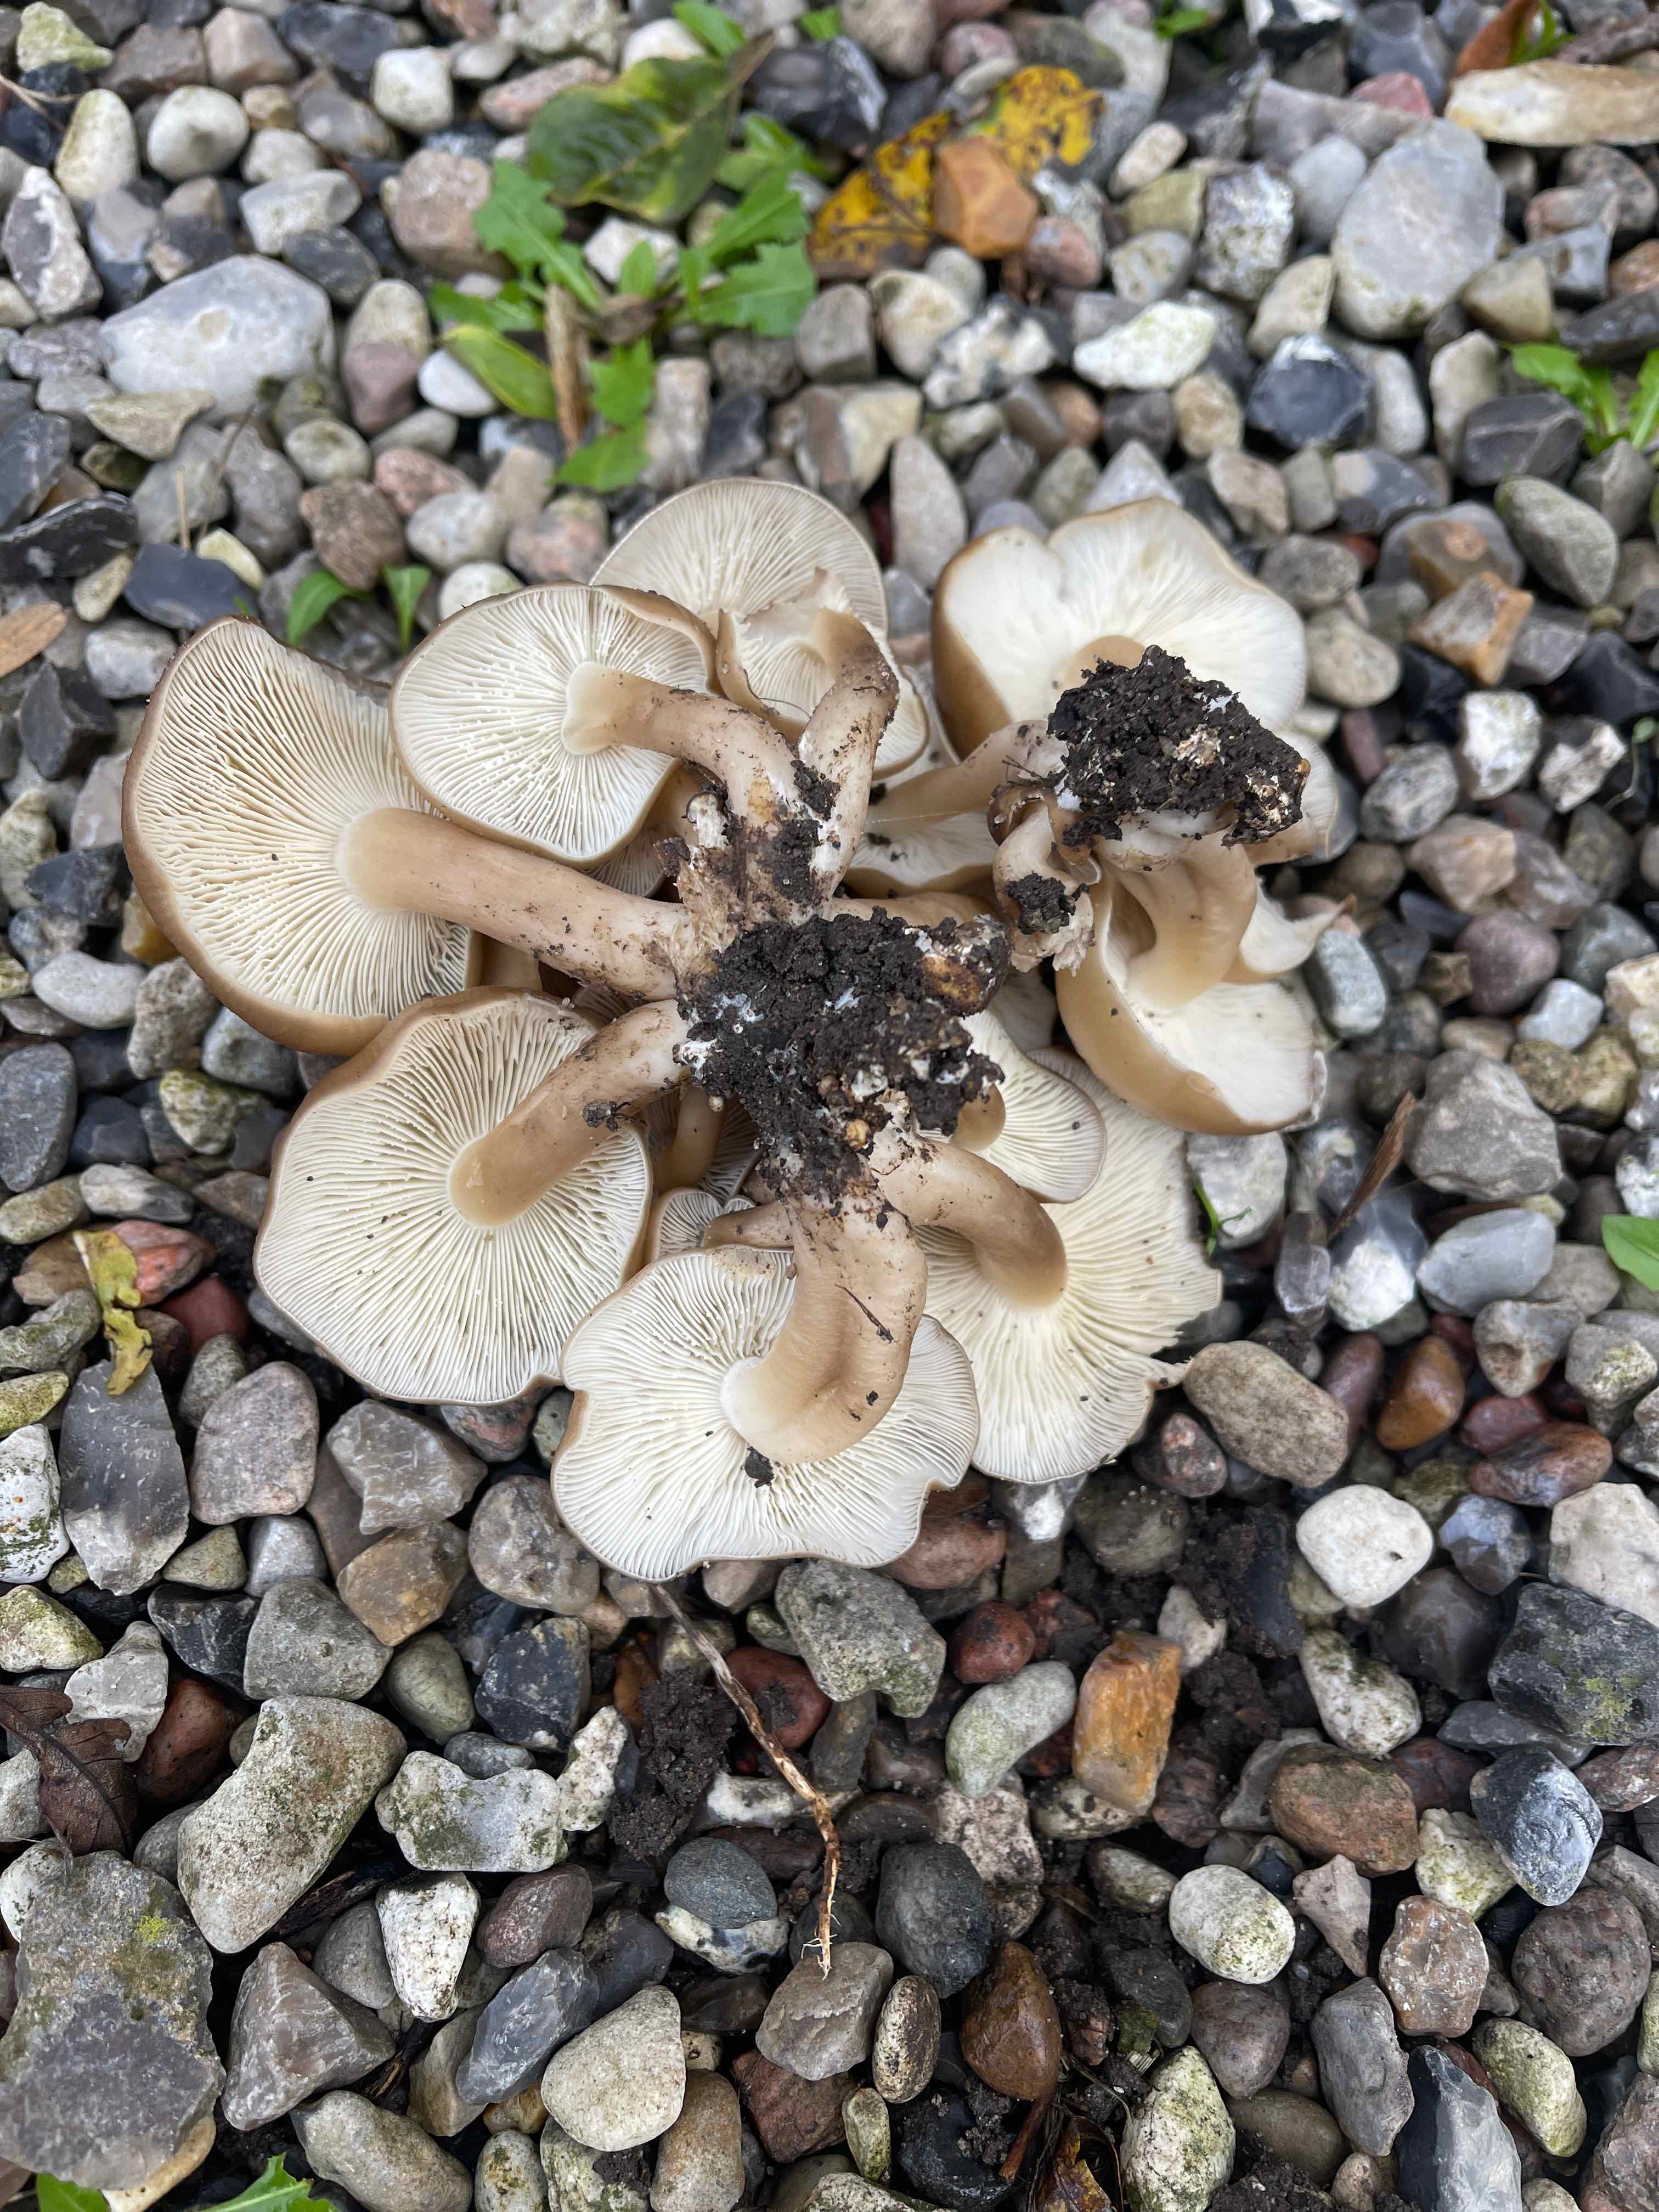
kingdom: Fungi
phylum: Basidiomycota
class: Agaricomycetes
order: Agaricales
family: Lyophyllaceae
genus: Lyophyllum
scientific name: Lyophyllum decastes
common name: røggrå gråblad
